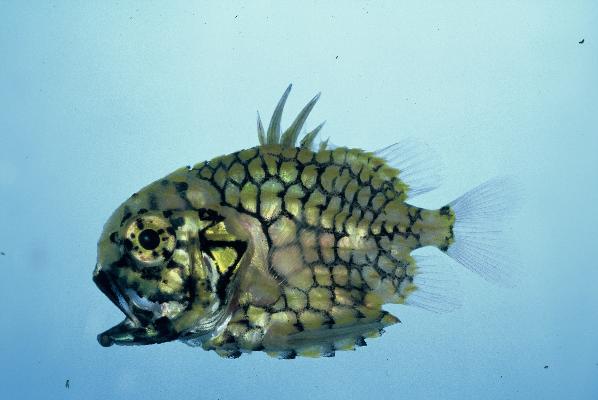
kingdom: Animalia
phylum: Chordata
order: Beryciformes
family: Monocentridae
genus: Monocentris
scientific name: Monocentris japonica
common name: Pineconefish
